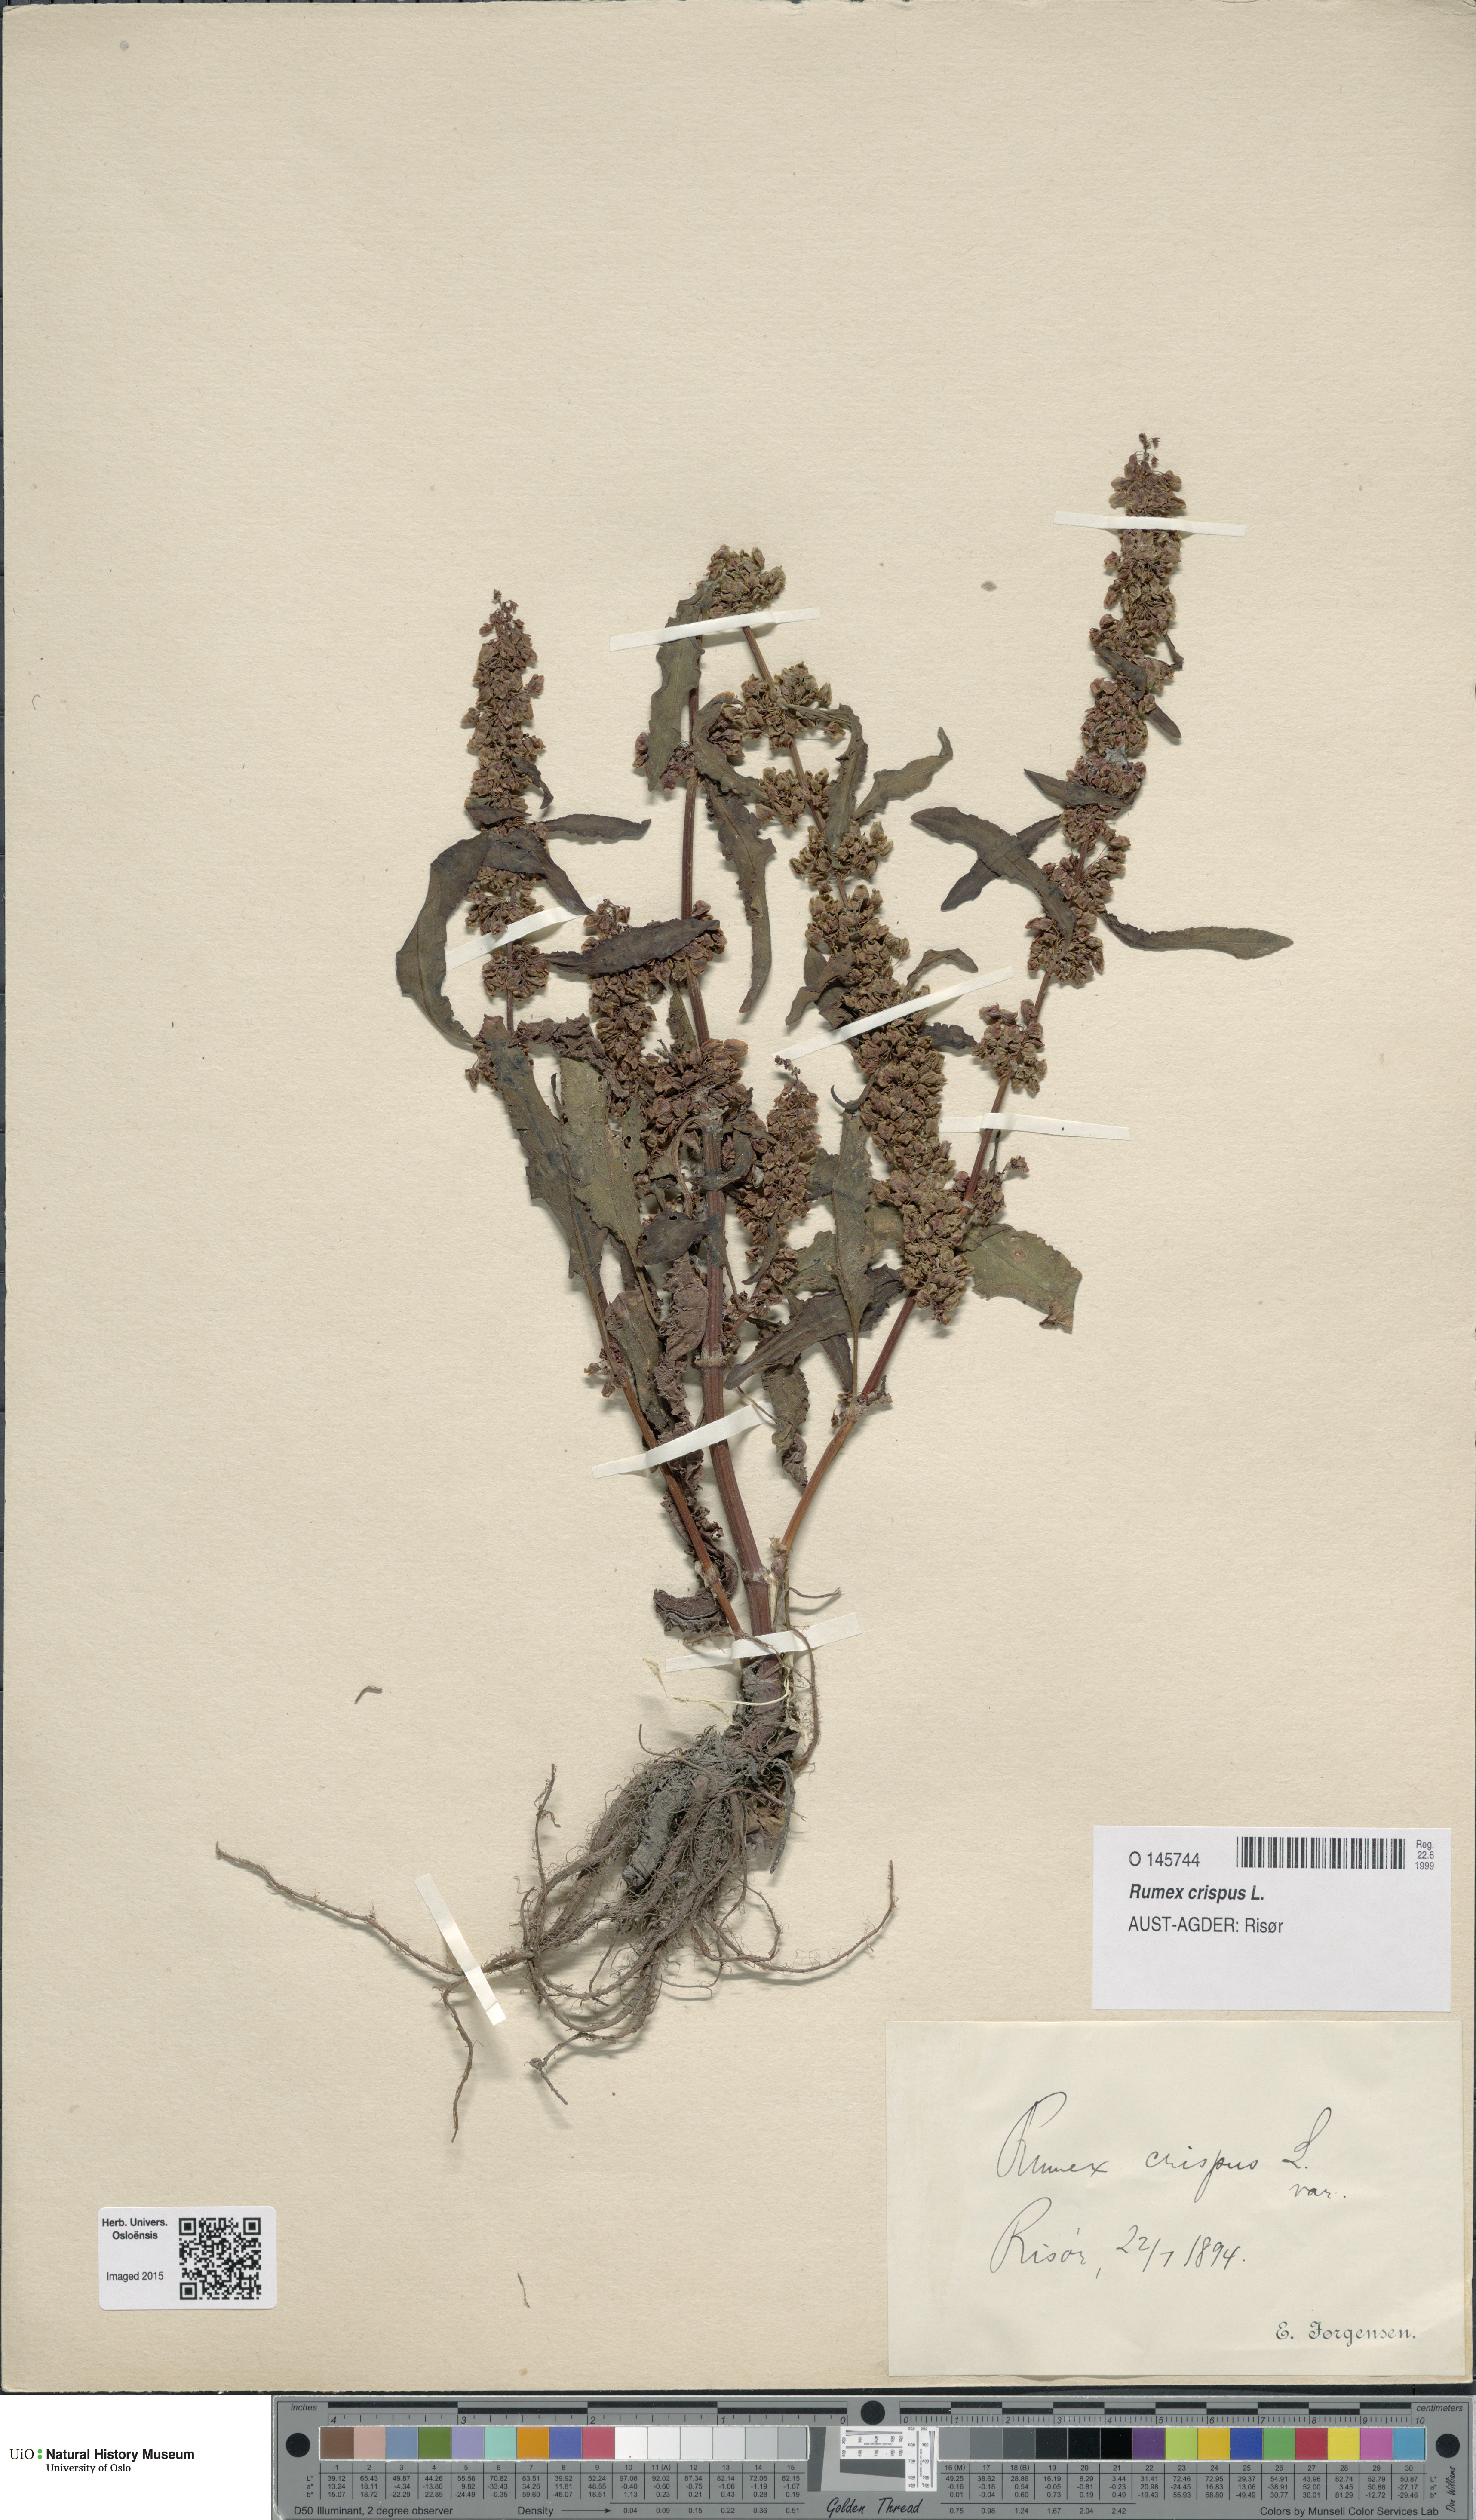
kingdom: Plantae
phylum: Tracheophyta
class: Magnoliopsida
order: Caryophyllales
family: Polygonaceae
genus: Rumex
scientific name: Rumex crispus
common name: Curled dock
